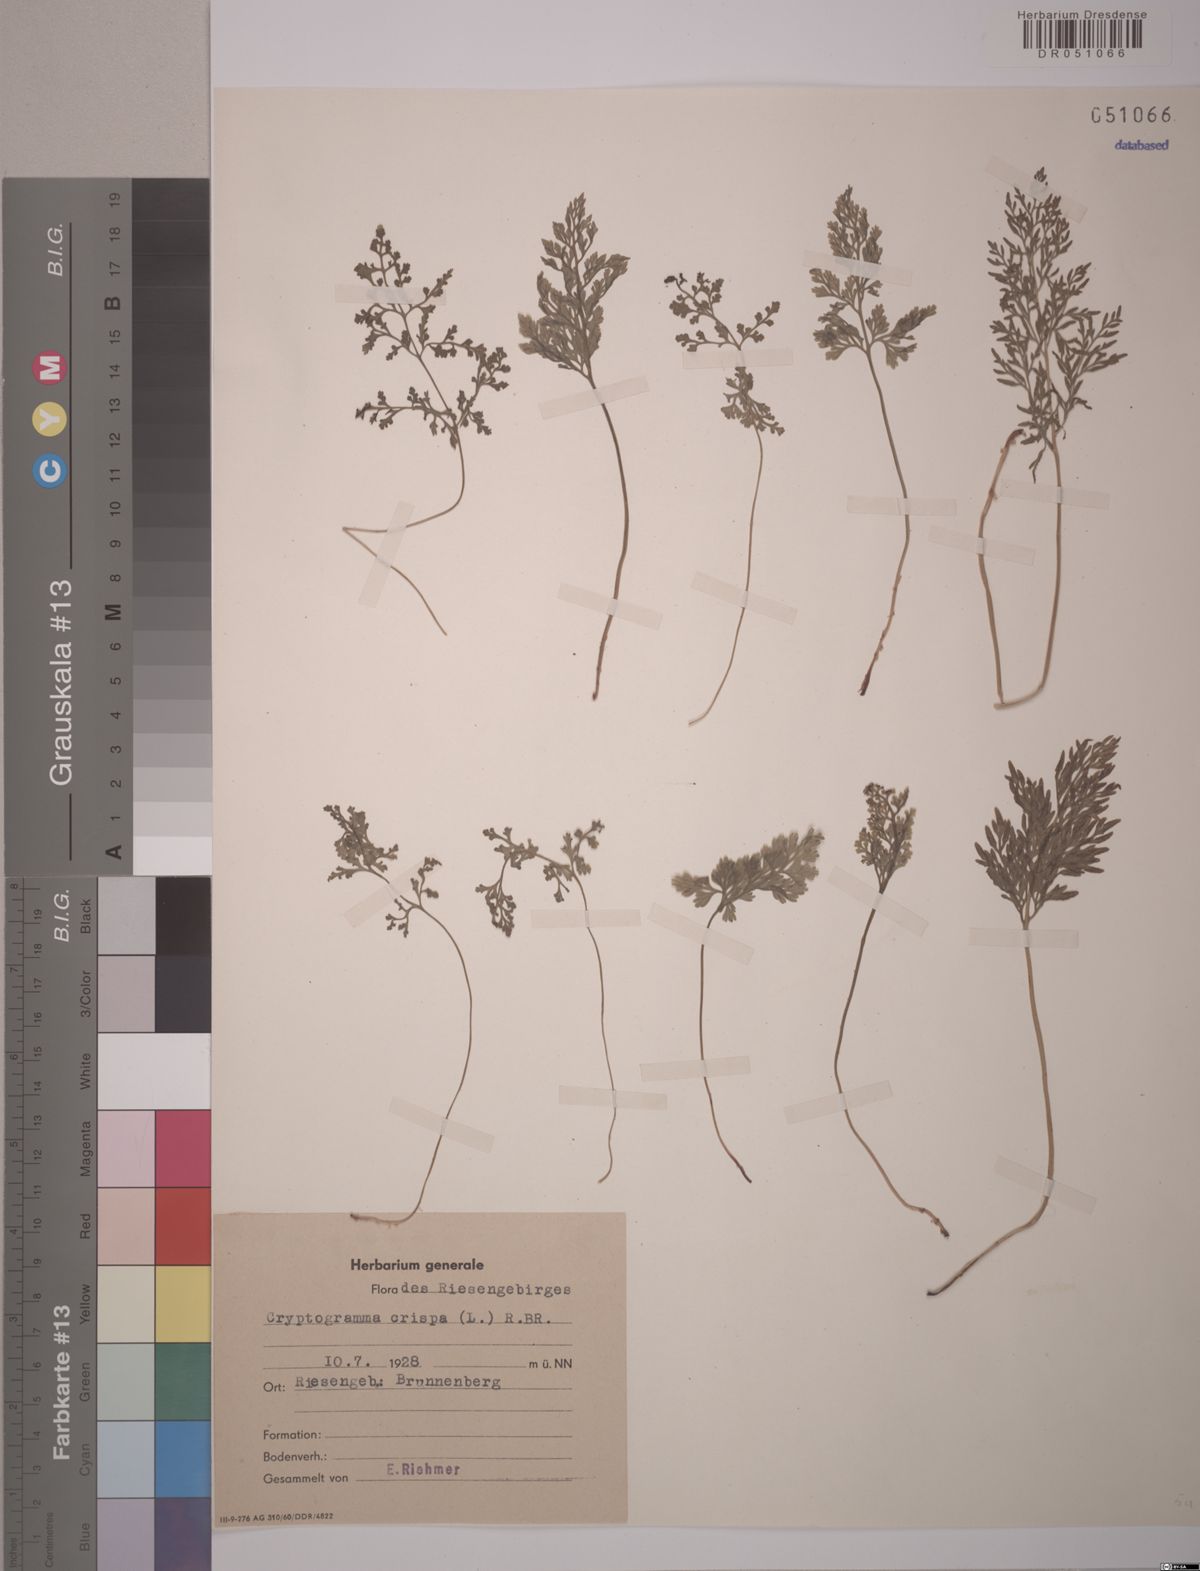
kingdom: Plantae
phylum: Tracheophyta
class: Polypodiopsida
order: Polypodiales
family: Pteridaceae
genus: Cryptogramma
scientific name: Cryptogramma crispa
